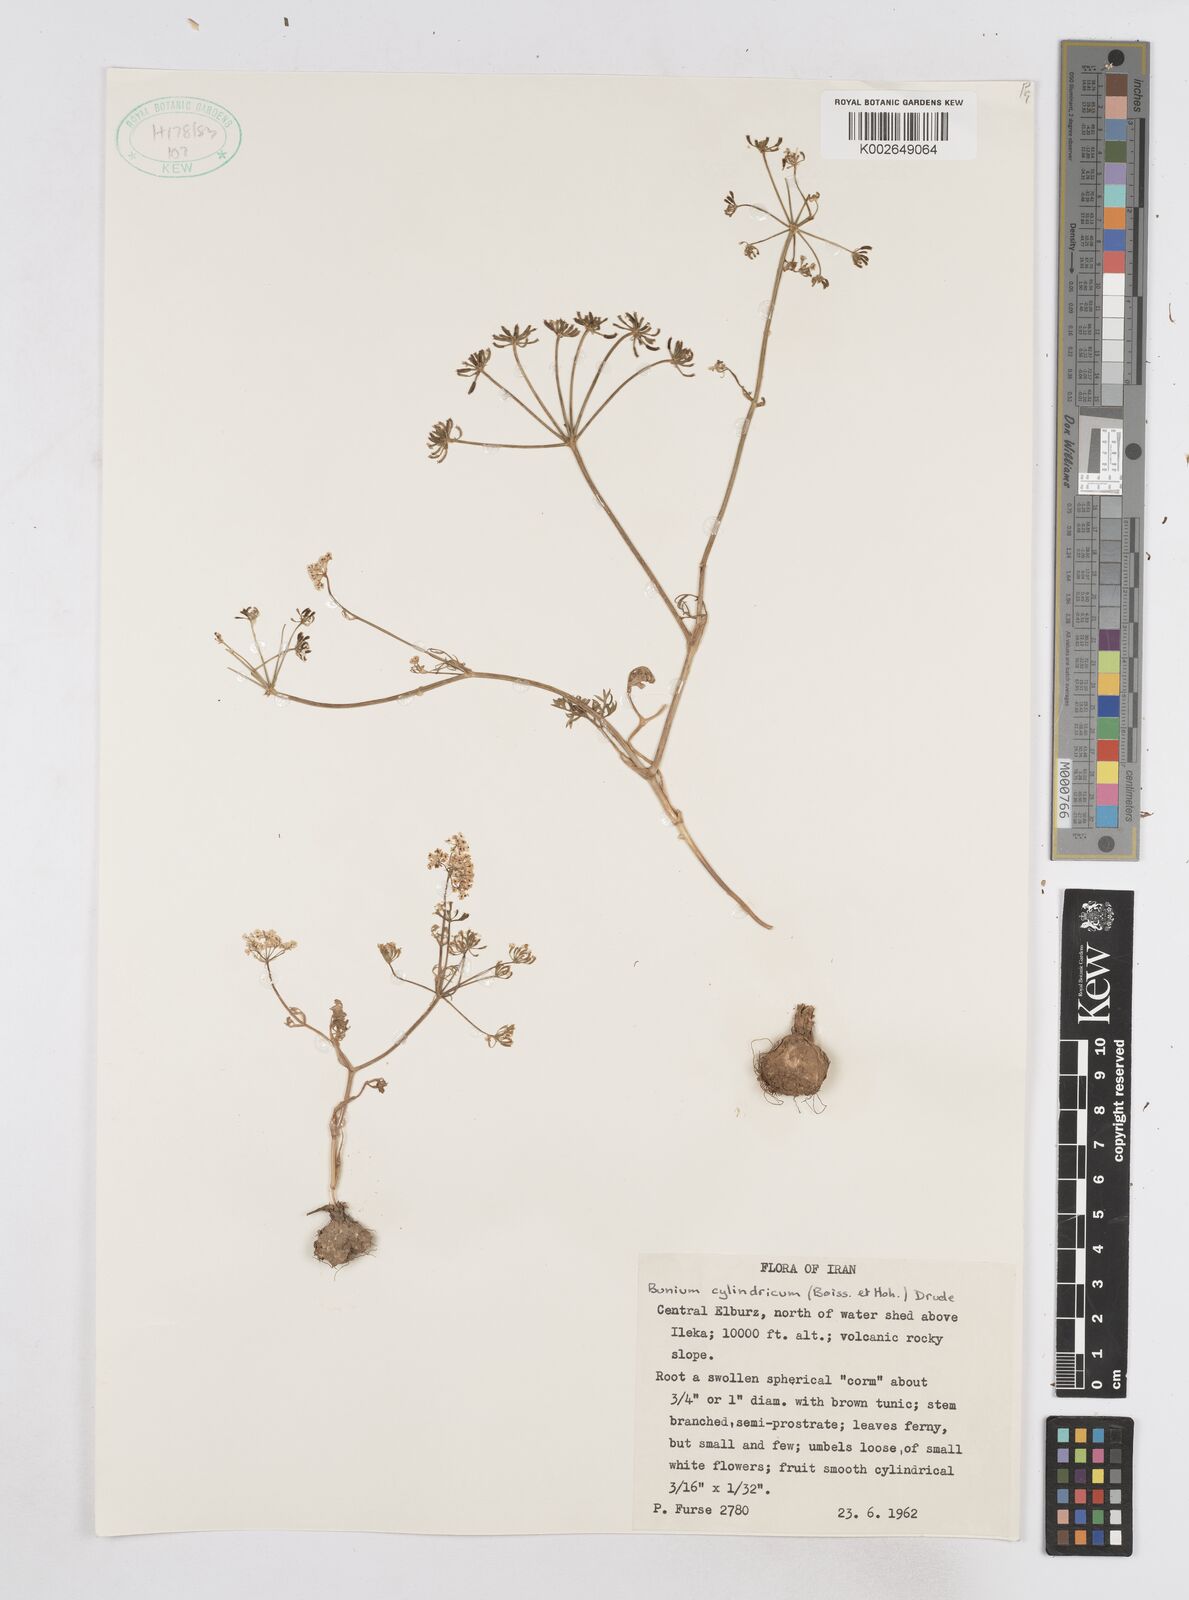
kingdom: Plantae
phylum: Tracheophyta
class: Magnoliopsida
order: Apiales
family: Apiaceae
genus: Elwendia
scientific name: Elwendia cylindrica
